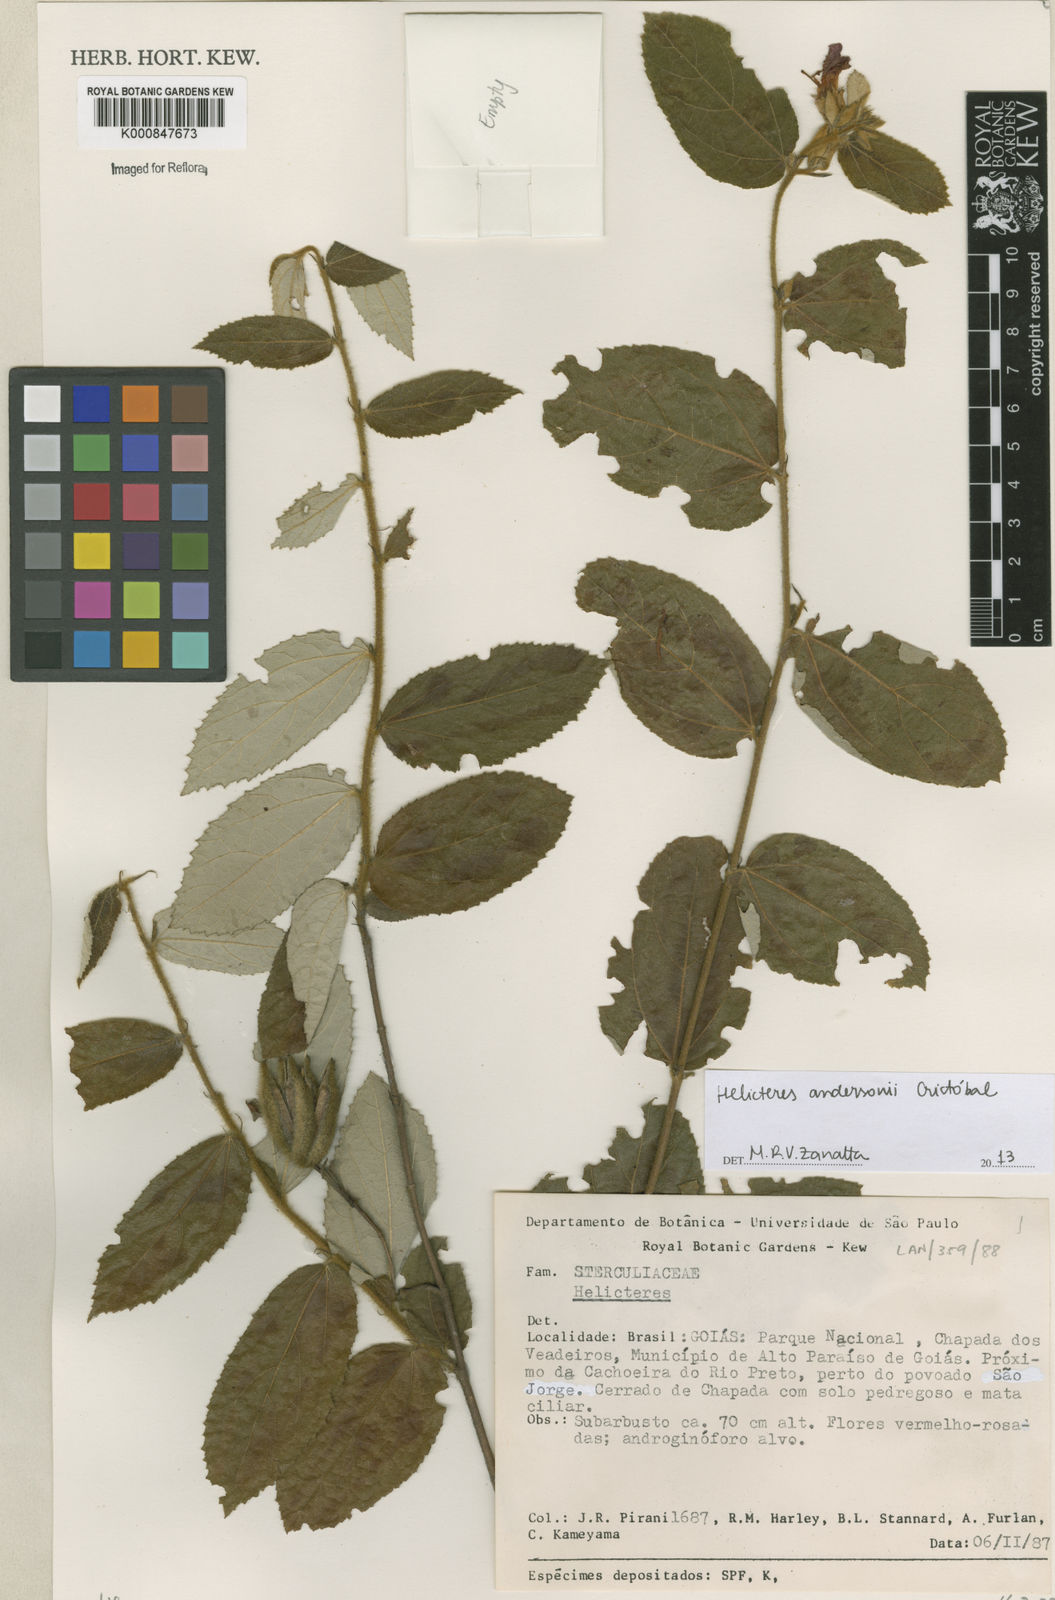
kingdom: Plantae
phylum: Tracheophyta
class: Magnoliopsida
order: Malvales
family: Malvaceae
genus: Helicteres
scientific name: Helicteres
